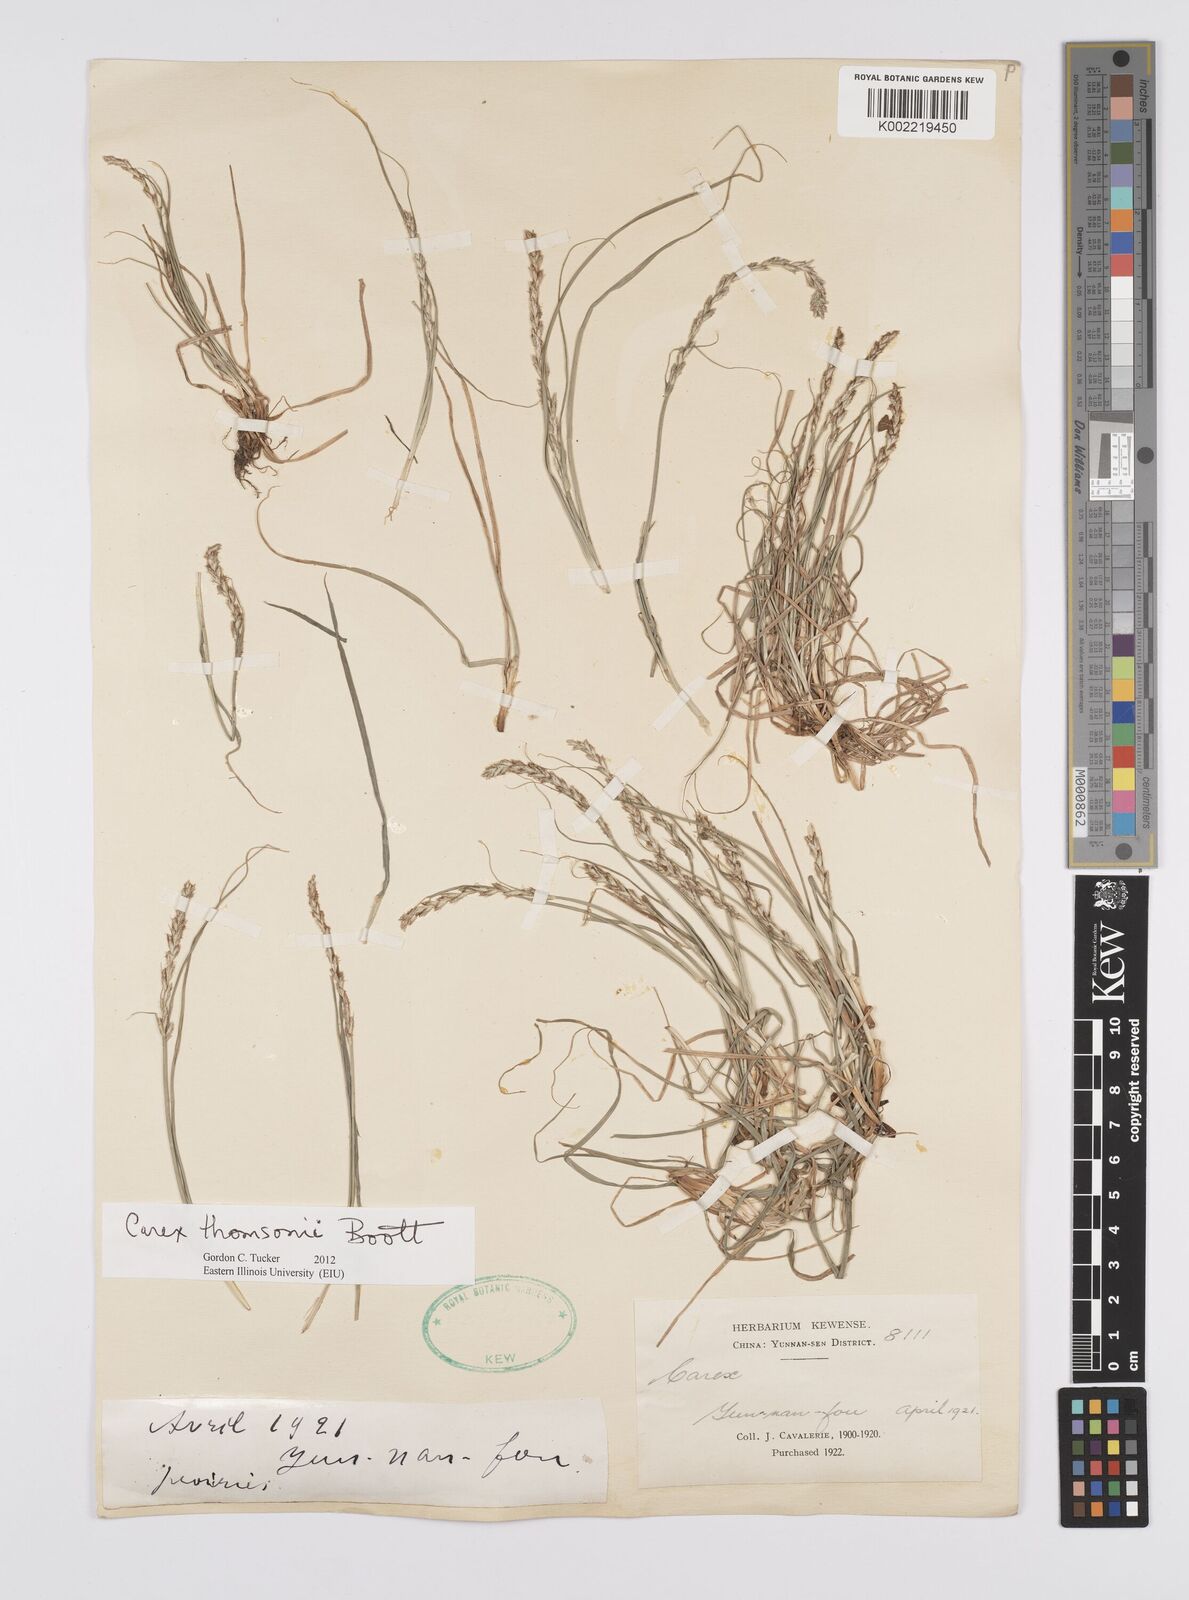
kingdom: Plantae
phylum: Tracheophyta
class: Liliopsida
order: Poales
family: Cyperaceae
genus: Carex
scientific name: Carex thomsonii
